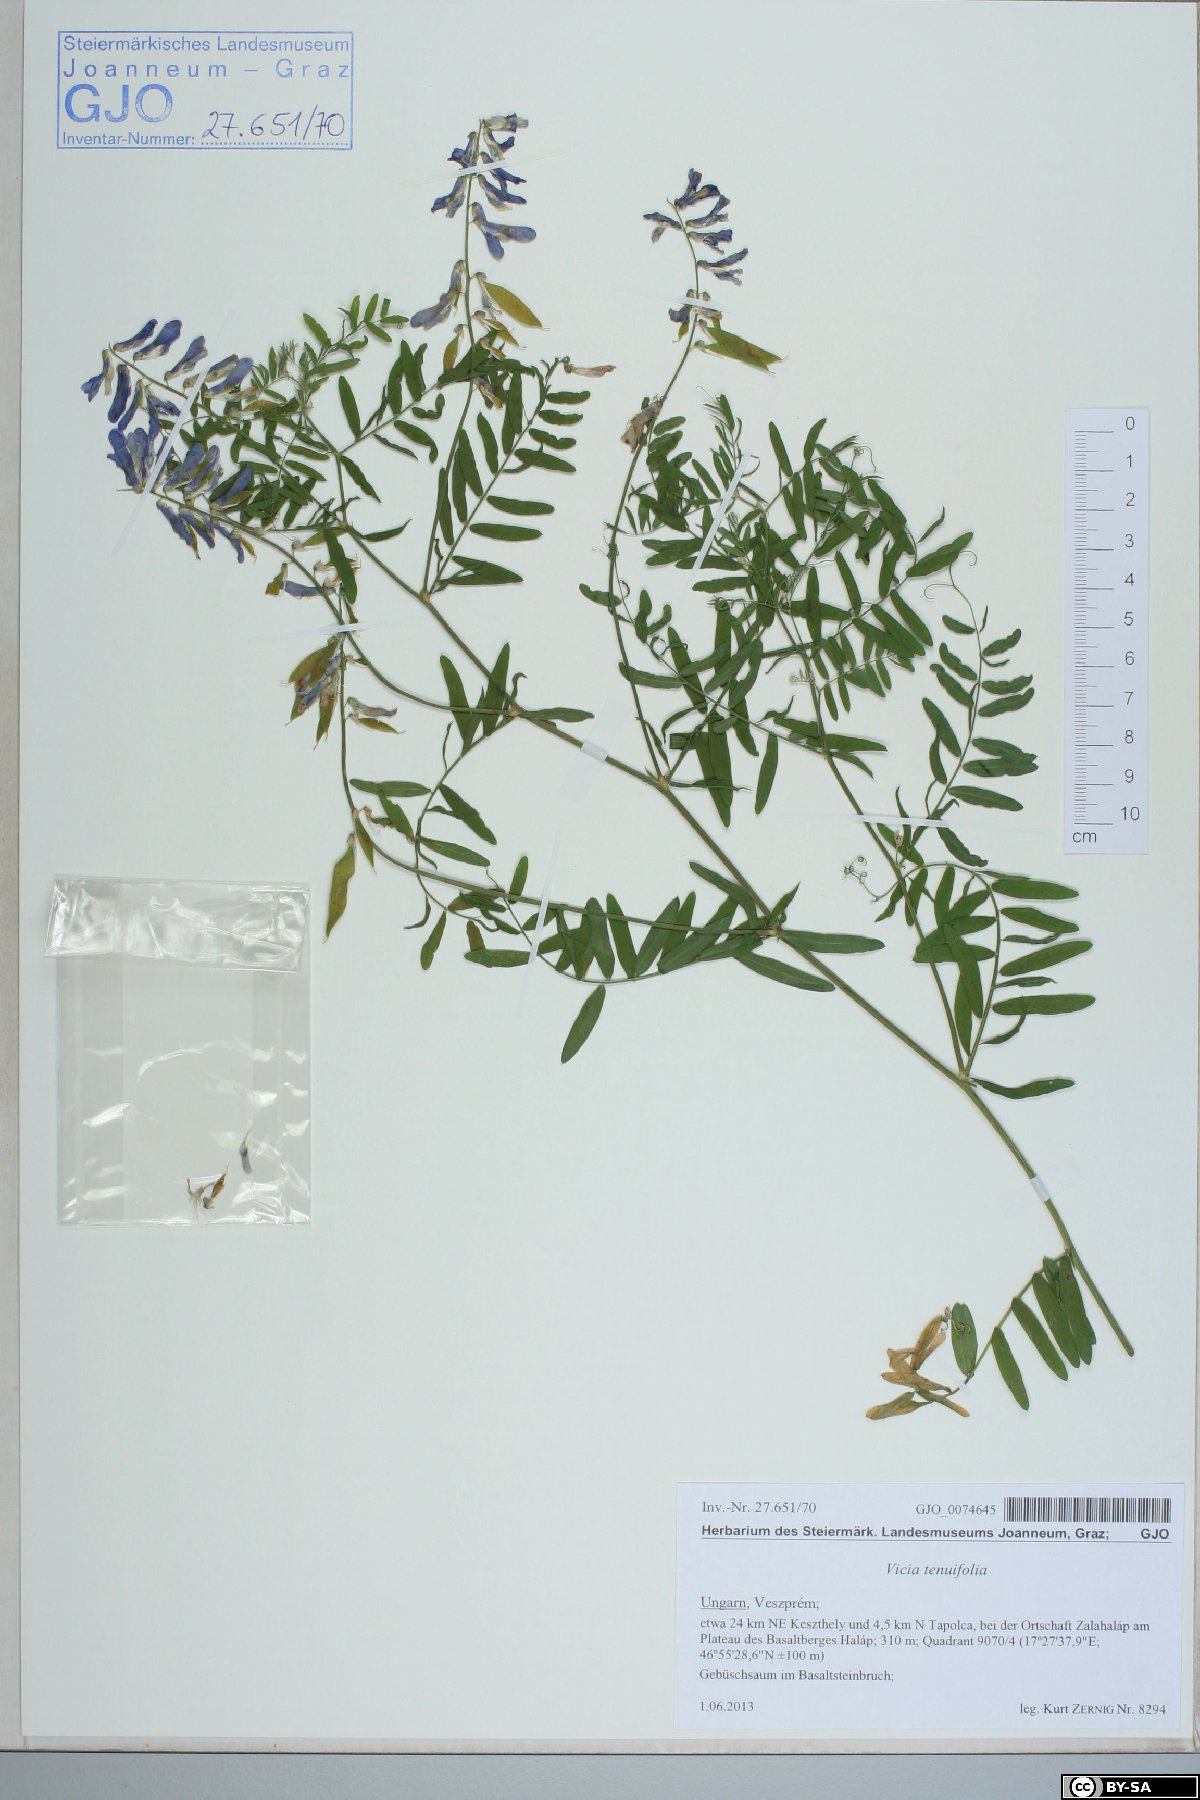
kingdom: Plantae
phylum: Tracheophyta
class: Magnoliopsida
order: Fabales
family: Fabaceae
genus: Vicia
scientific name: Vicia tenuifolia
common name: Fine-leaved vetch
